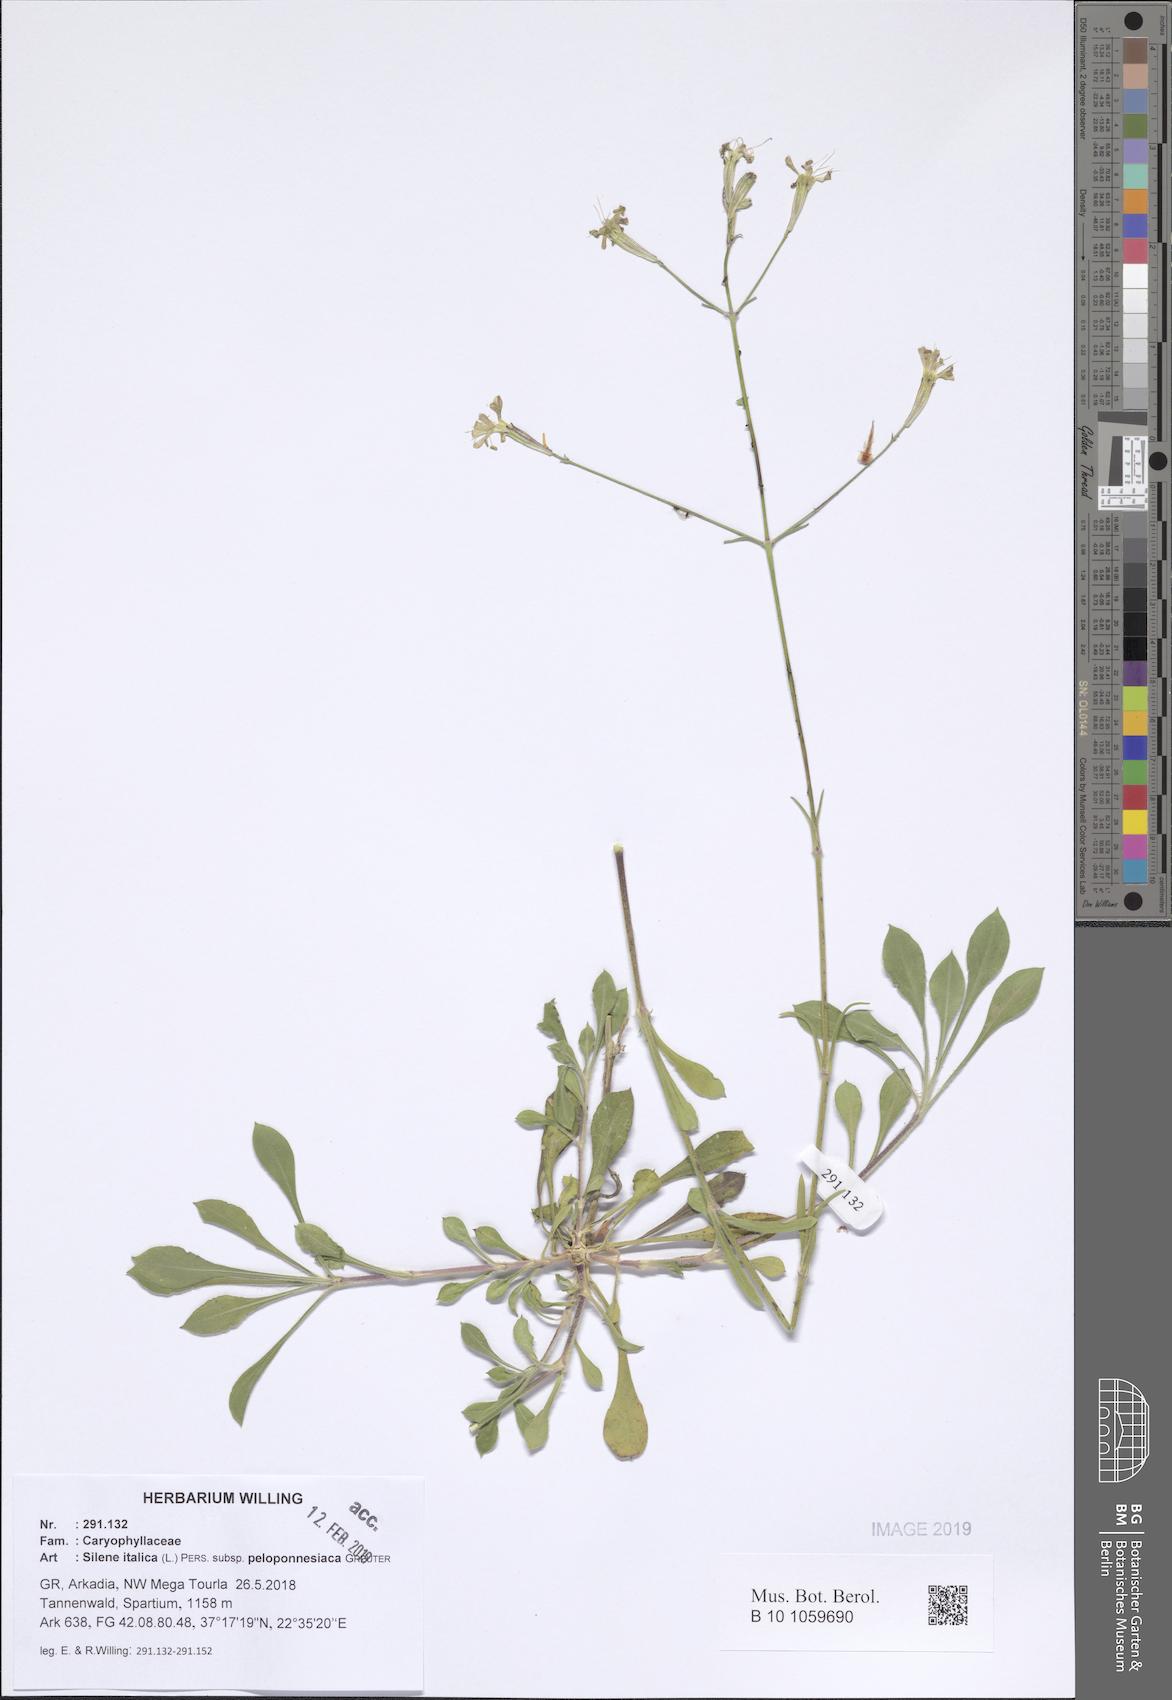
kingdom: Plantae
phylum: Tracheophyta
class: Magnoliopsida
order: Caryophyllales
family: Caryophyllaceae
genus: Silene
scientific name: Silene italica
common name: Italian catchfly
